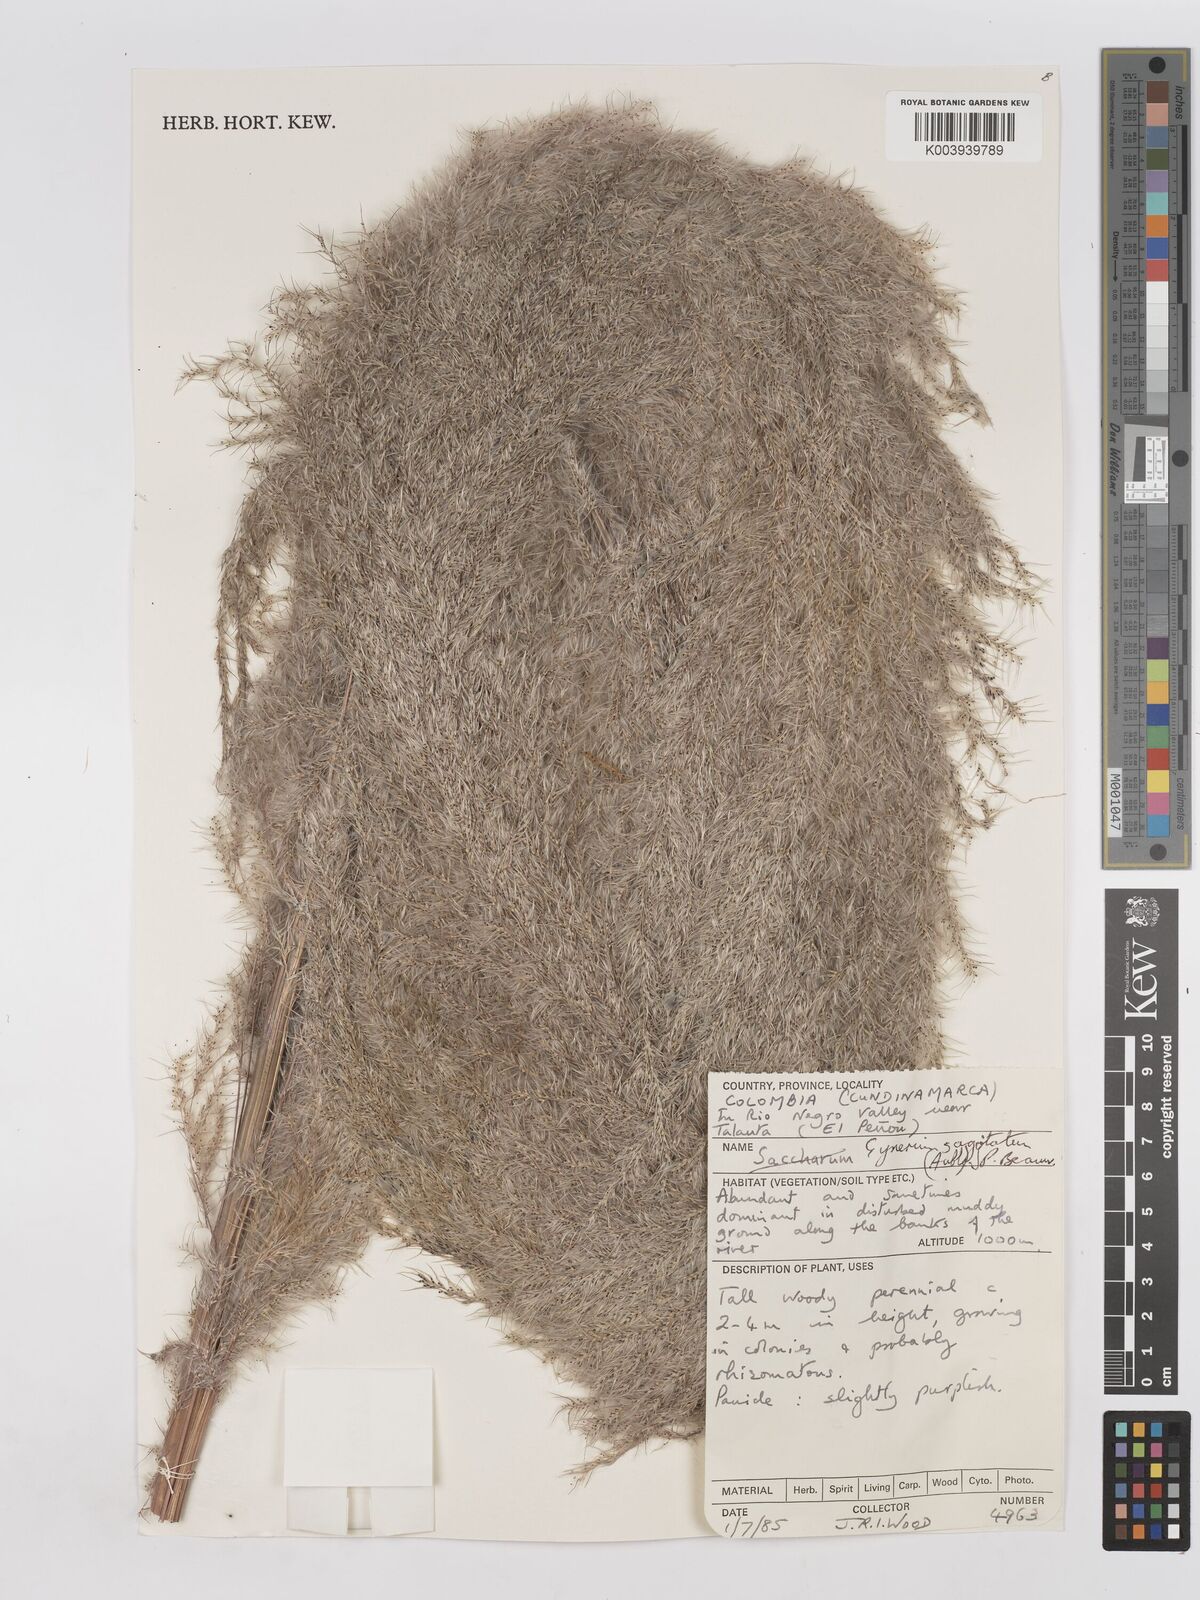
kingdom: Plantae
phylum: Tracheophyta
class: Liliopsida
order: Poales
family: Poaceae
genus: Gynerium
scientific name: Gynerium sagittatum
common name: Wild cane
